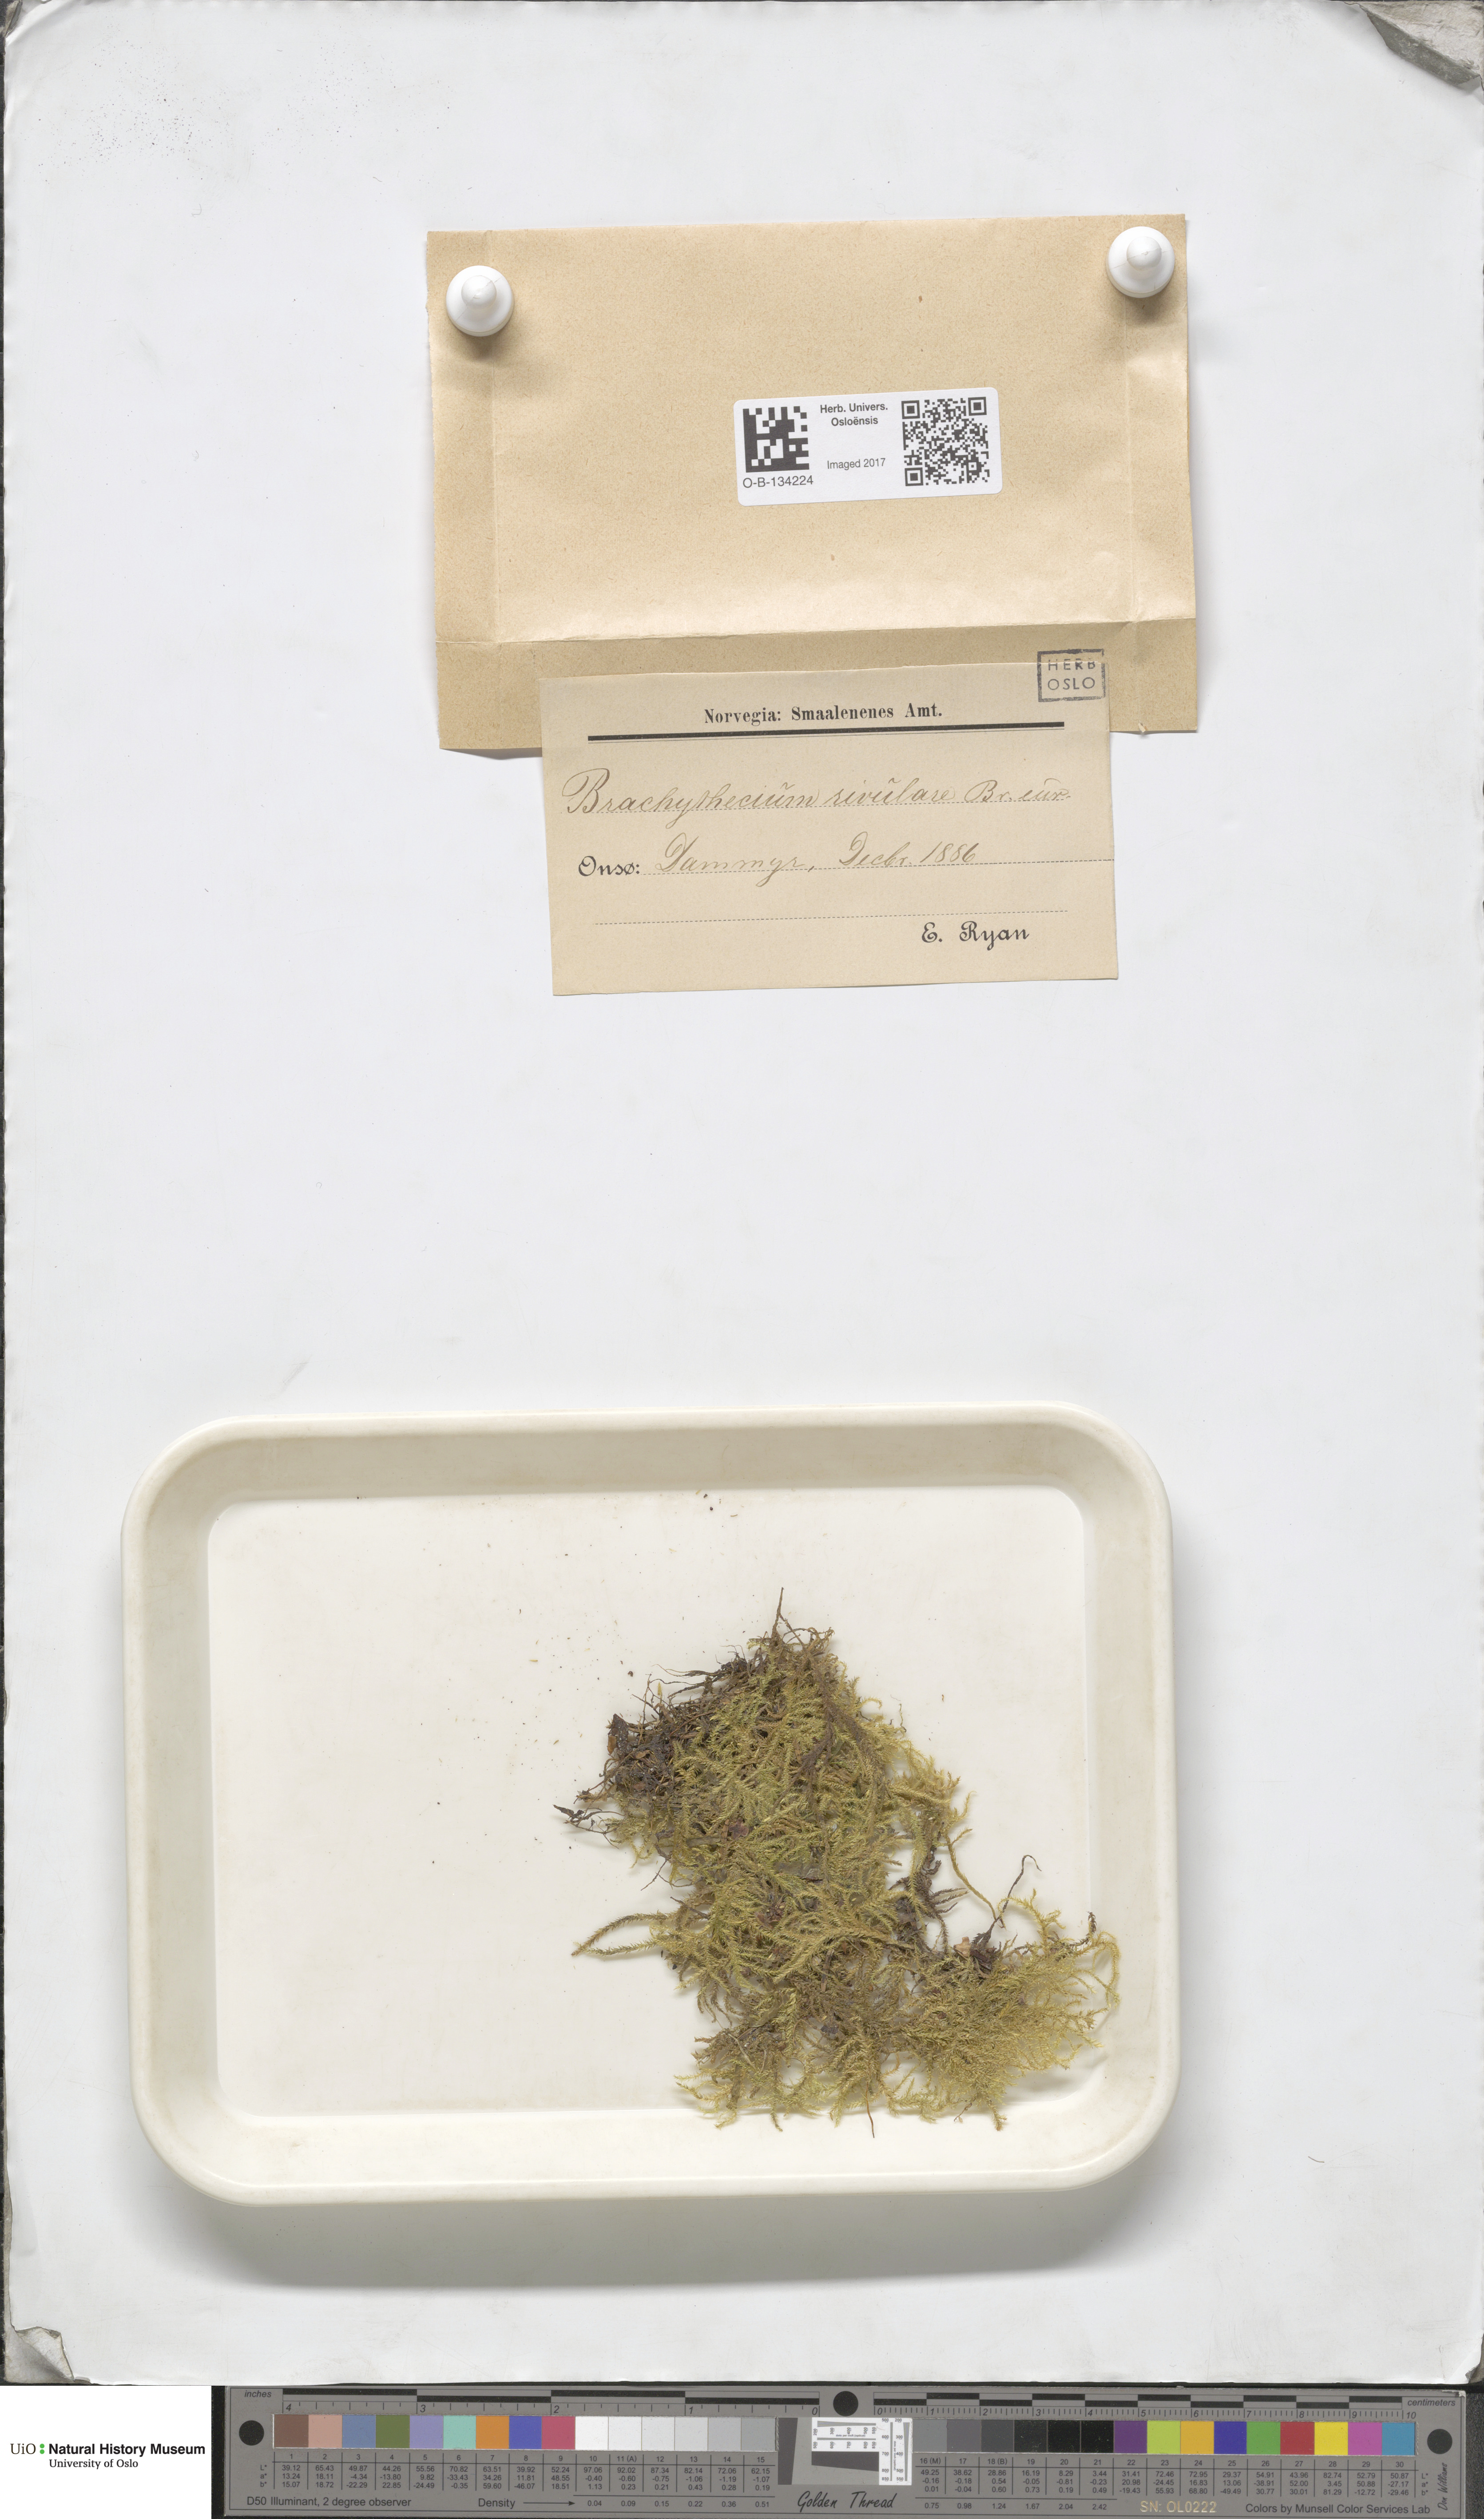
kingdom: Plantae
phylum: Bryophyta
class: Bryopsida
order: Hypnales
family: Brachytheciaceae
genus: Brachythecium
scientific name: Brachythecium rivulare
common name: River ragged moss
